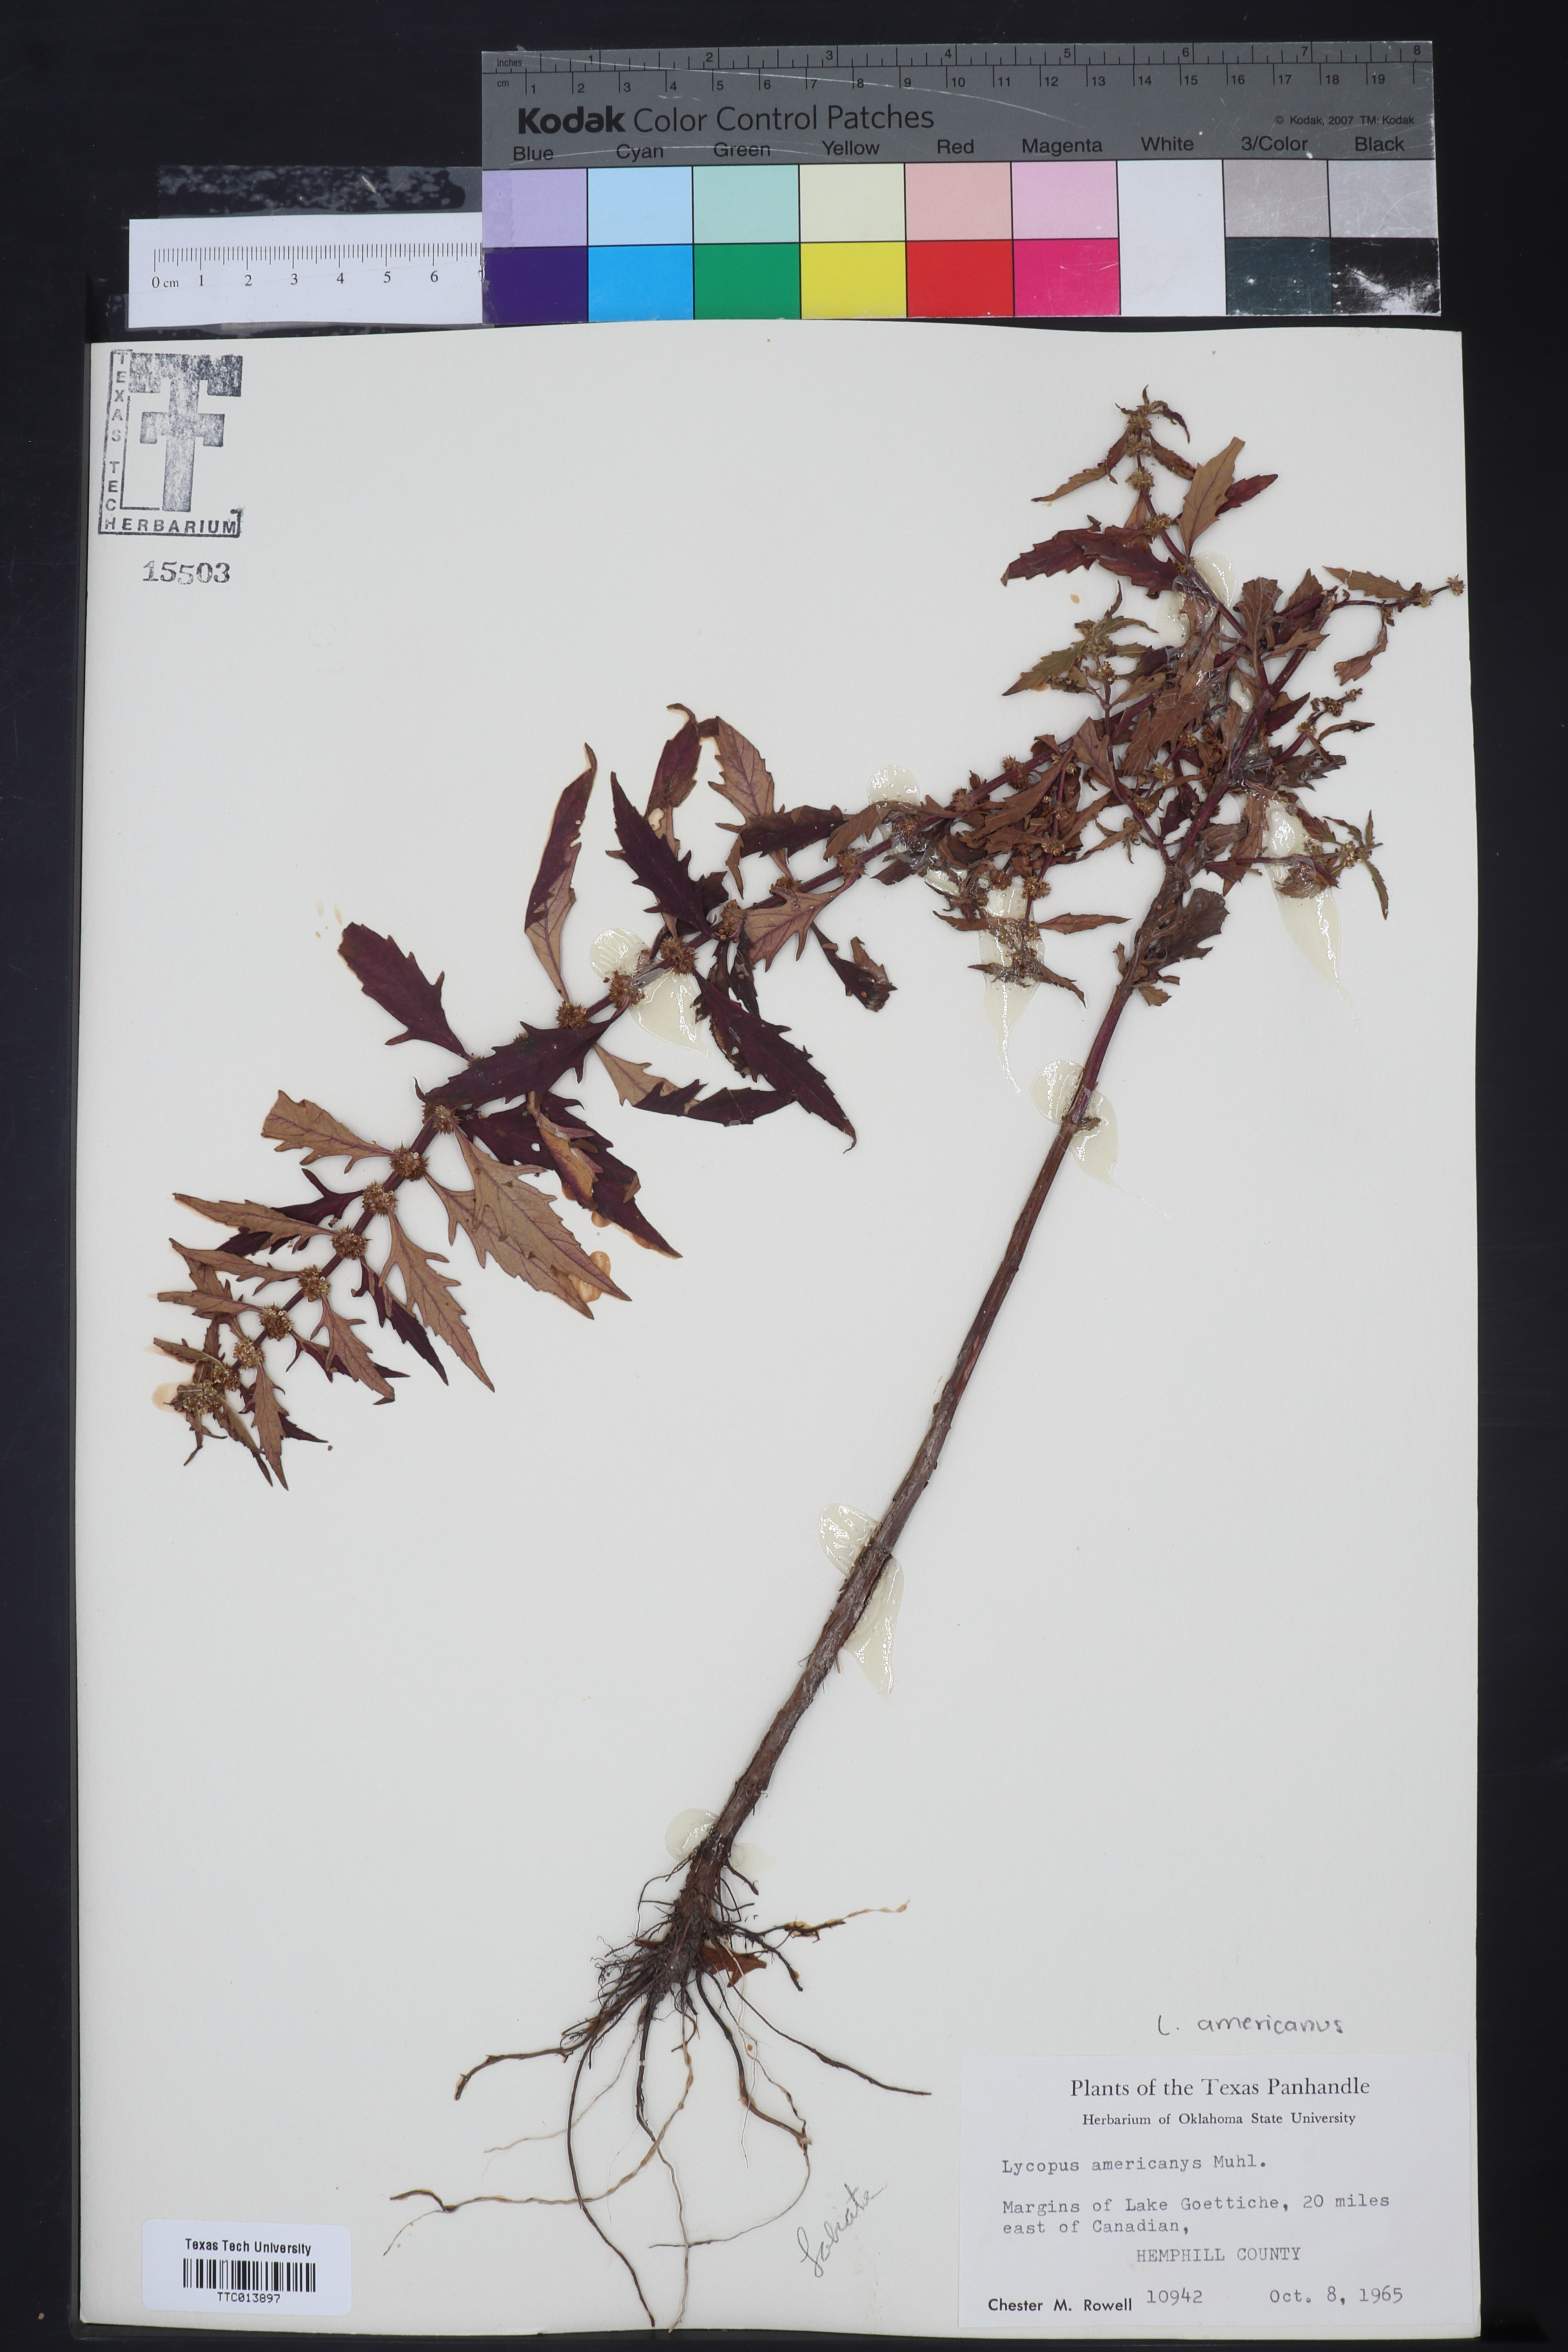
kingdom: Plantae
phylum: Tracheophyta
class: Magnoliopsida
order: Lamiales
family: Lamiaceae
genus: Lycopus
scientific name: Lycopus americanus
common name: American bugleweed
